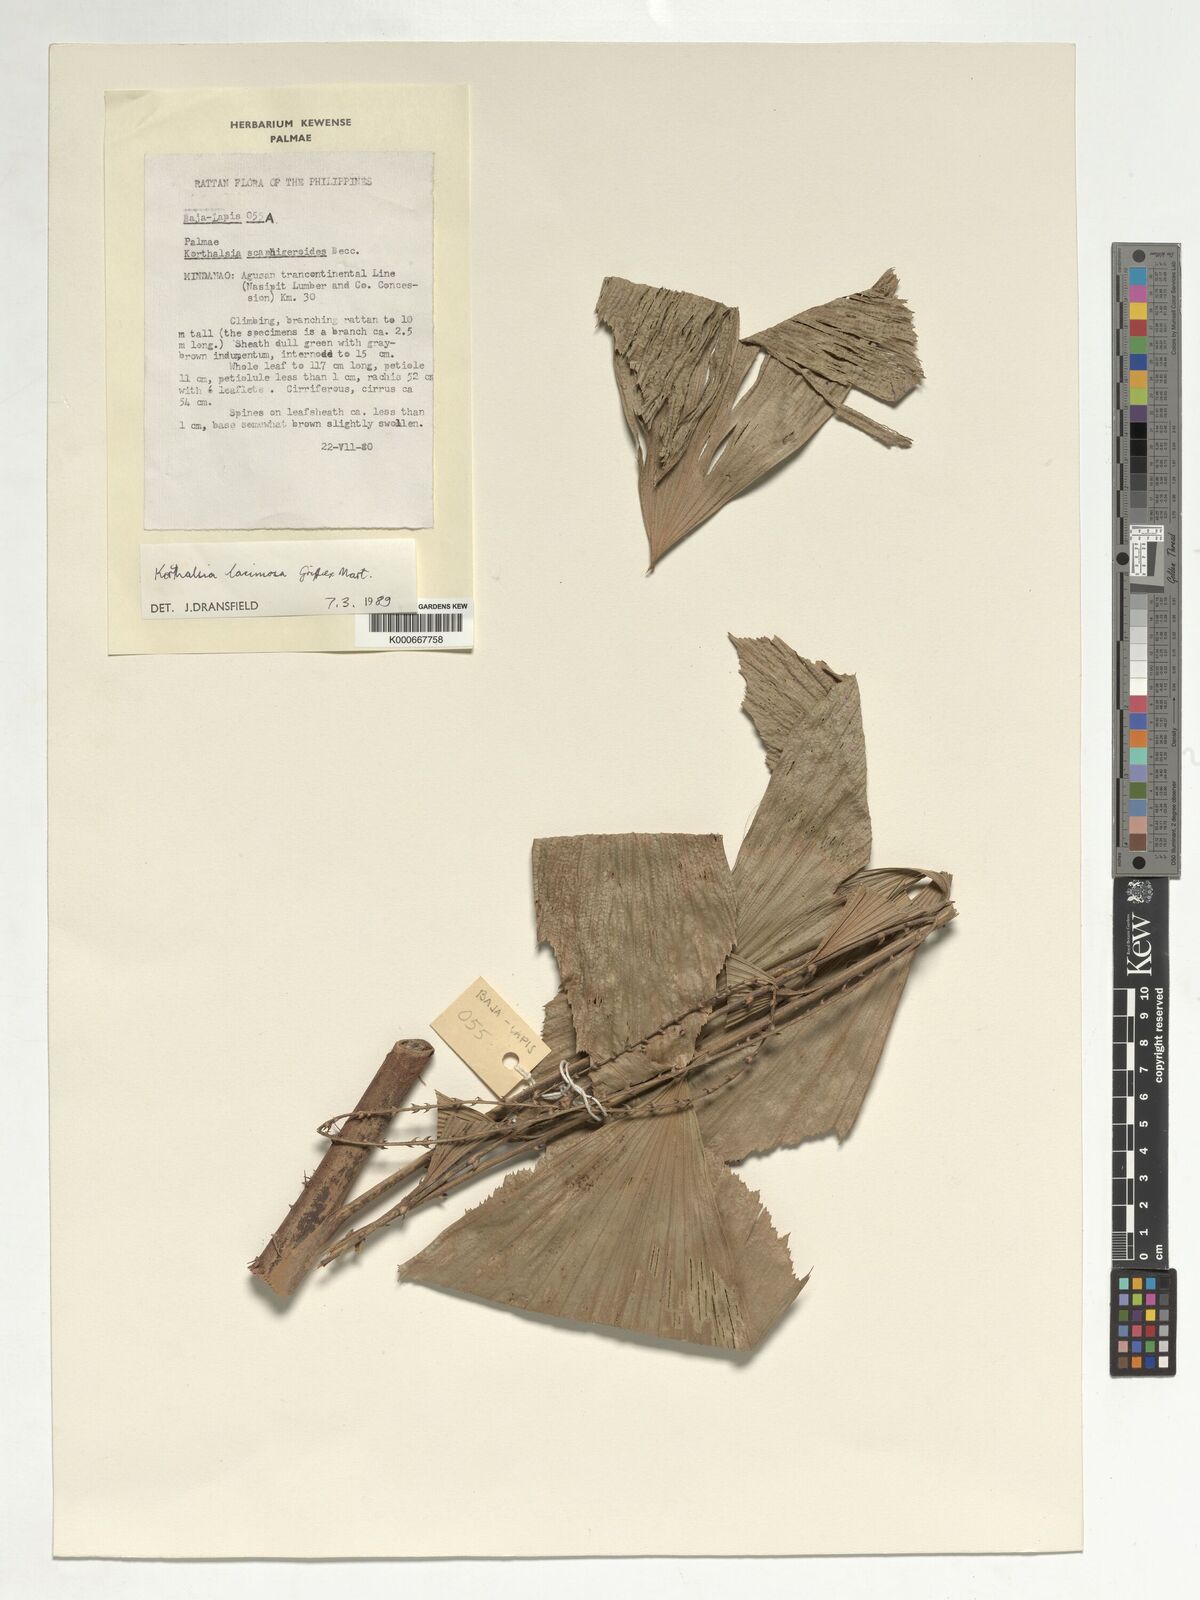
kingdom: Plantae
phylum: Tracheophyta
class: Liliopsida
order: Arecales
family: Arecaceae
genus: Korthalsia
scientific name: Korthalsia laciniosa
